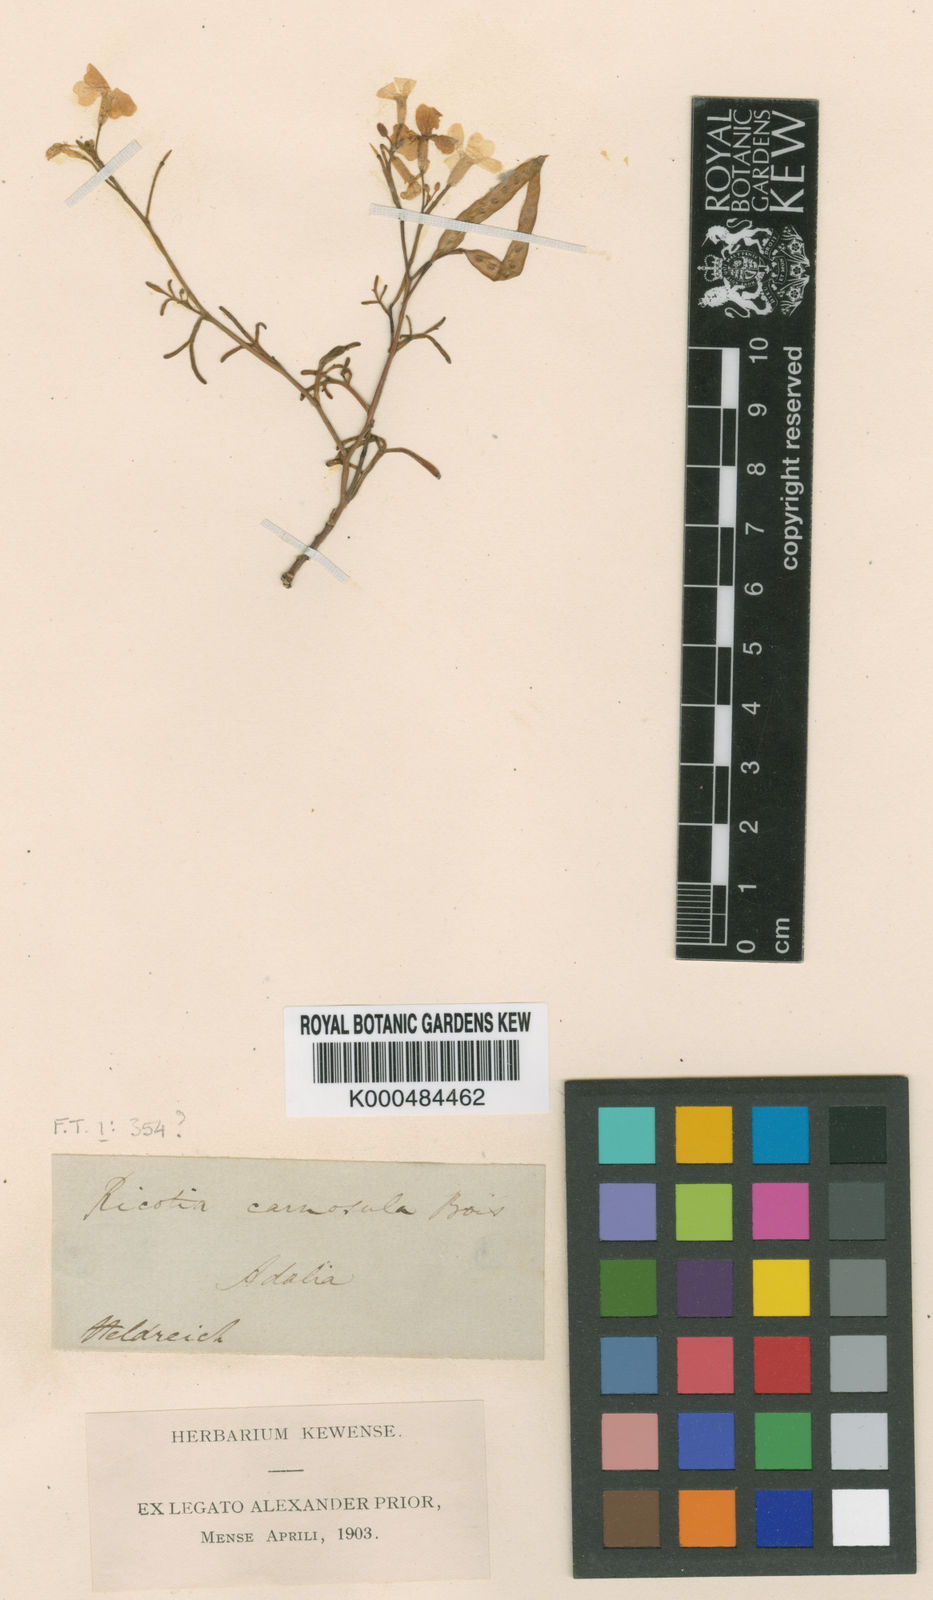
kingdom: Plantae
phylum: Tracheophyta
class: Magnoliopsida
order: Brassicales
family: Brassicaceae
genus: Ricotia
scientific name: Ricotia carnosula
